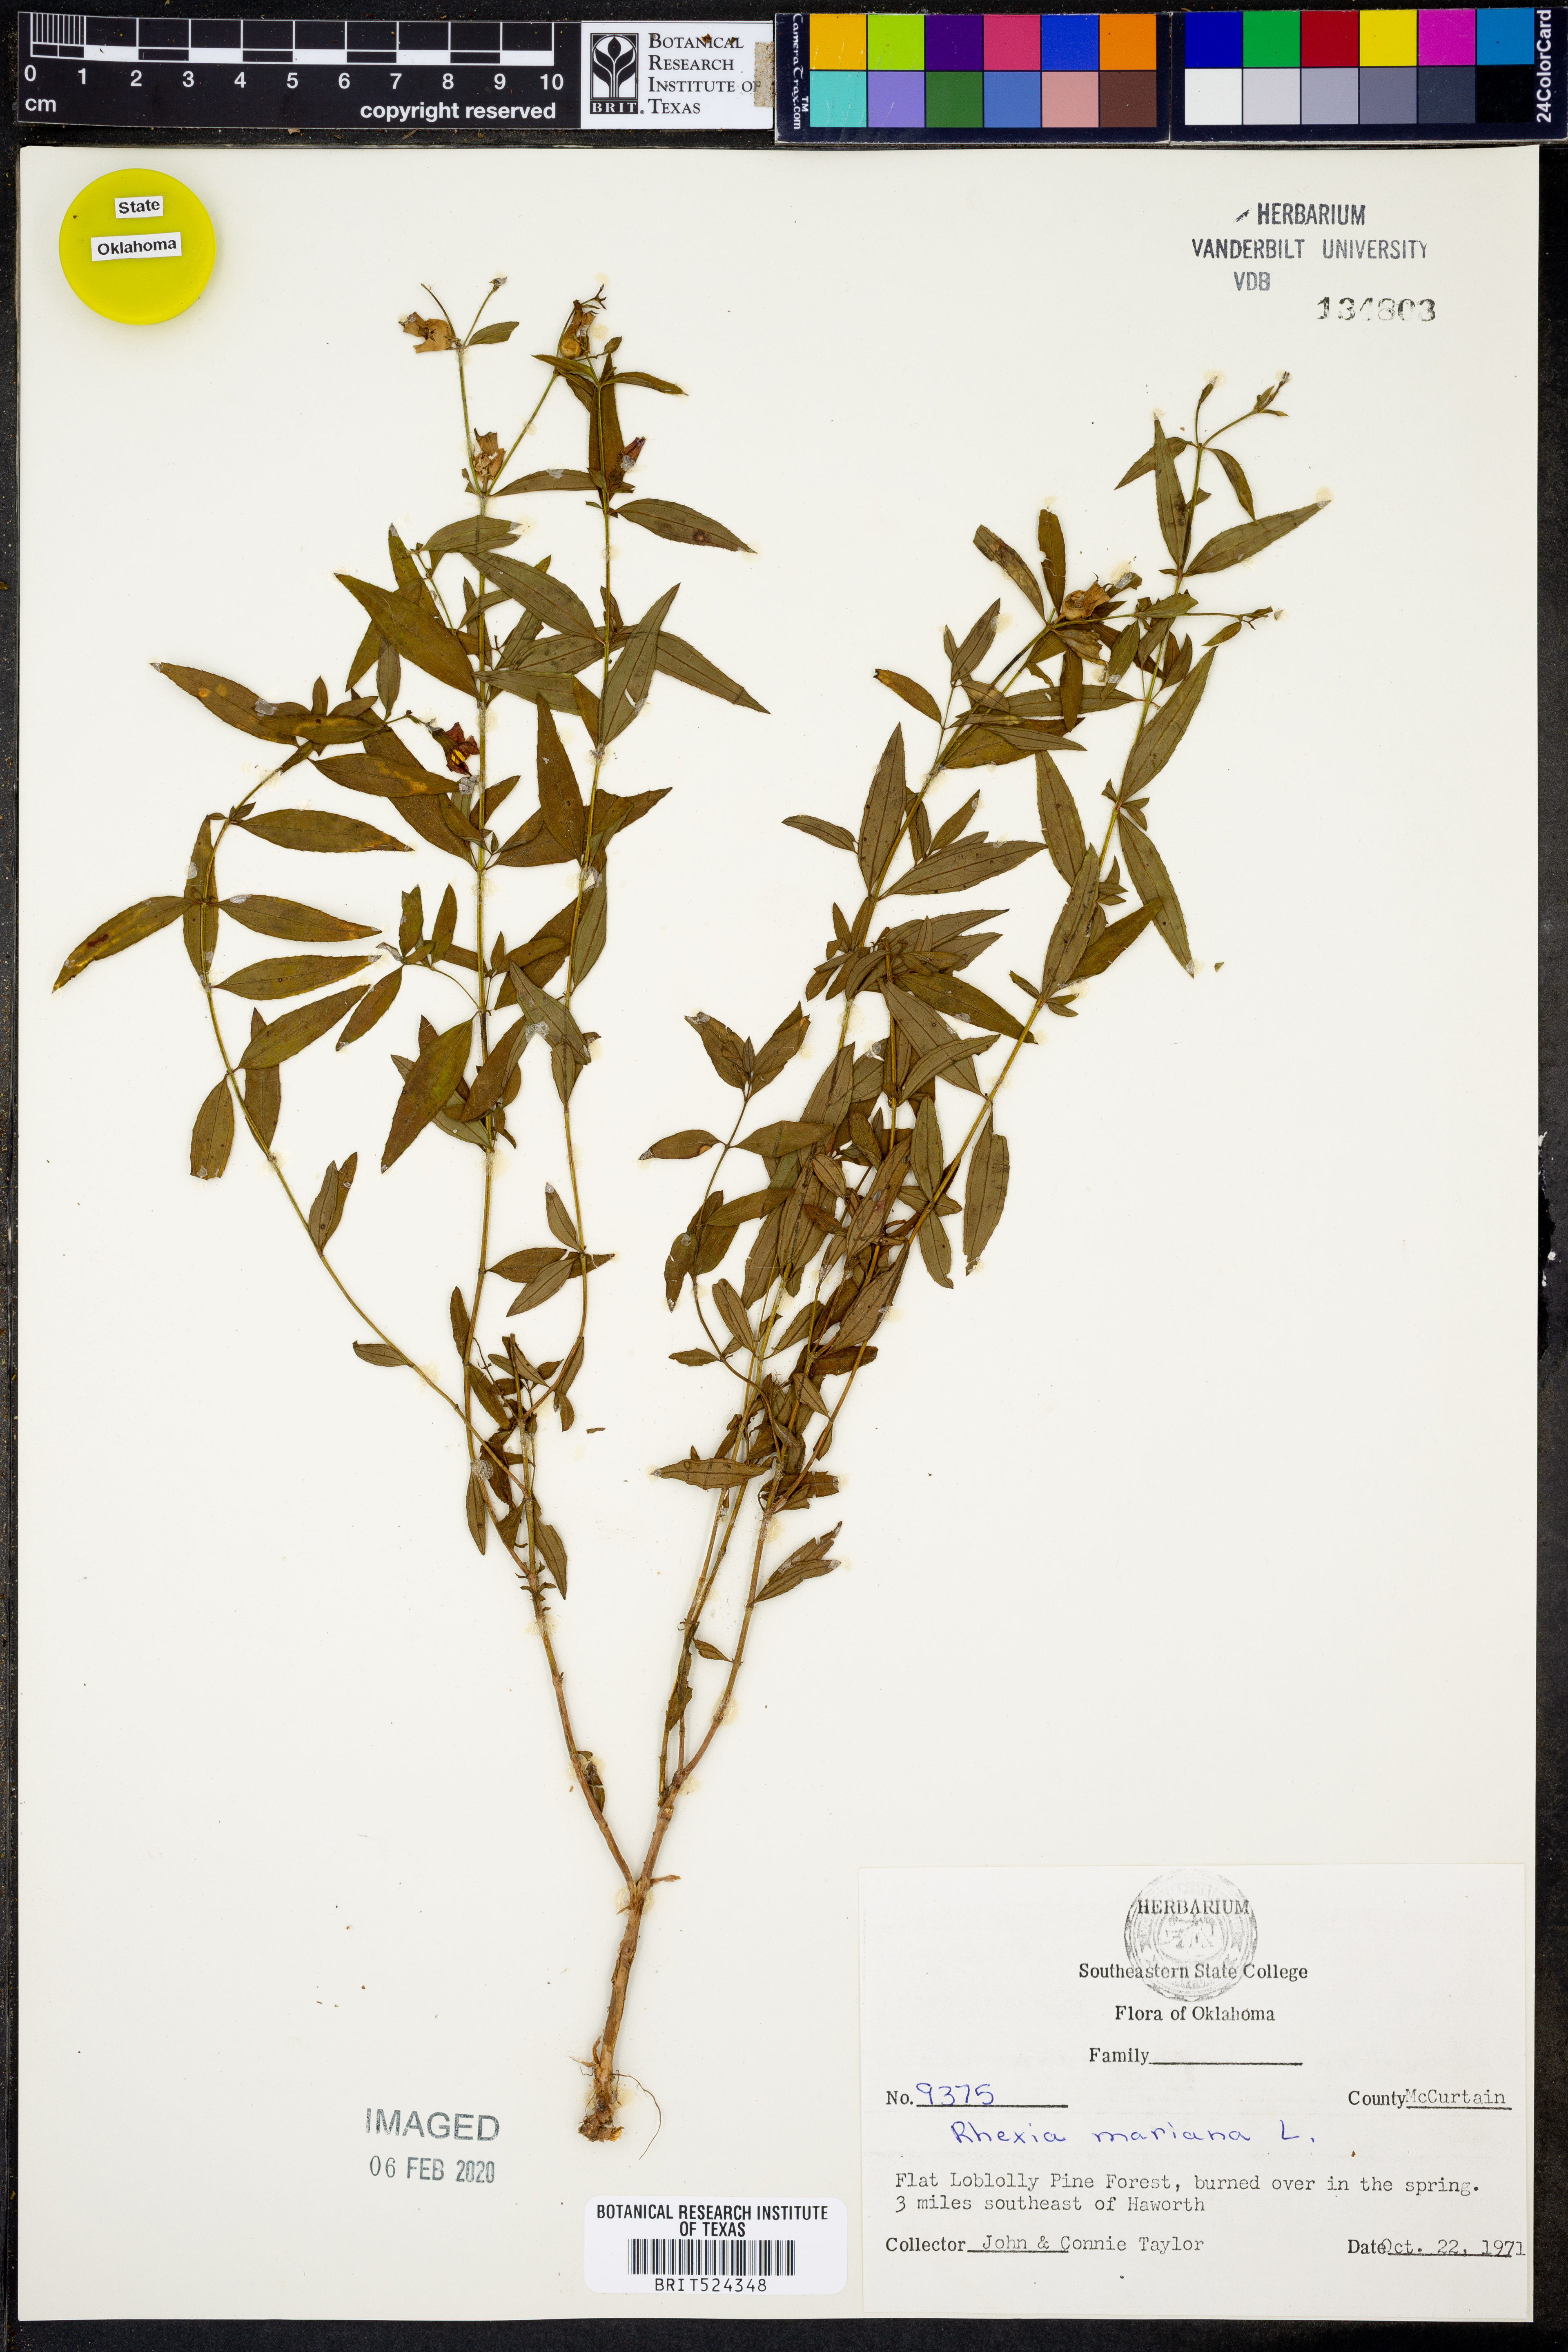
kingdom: Plantae
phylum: Tracheophyta
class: Magnoliopsida
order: Myrtales
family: Melastomataceae
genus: Rhexia
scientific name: Rhexia mariana
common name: Dull meadow-pitcher
